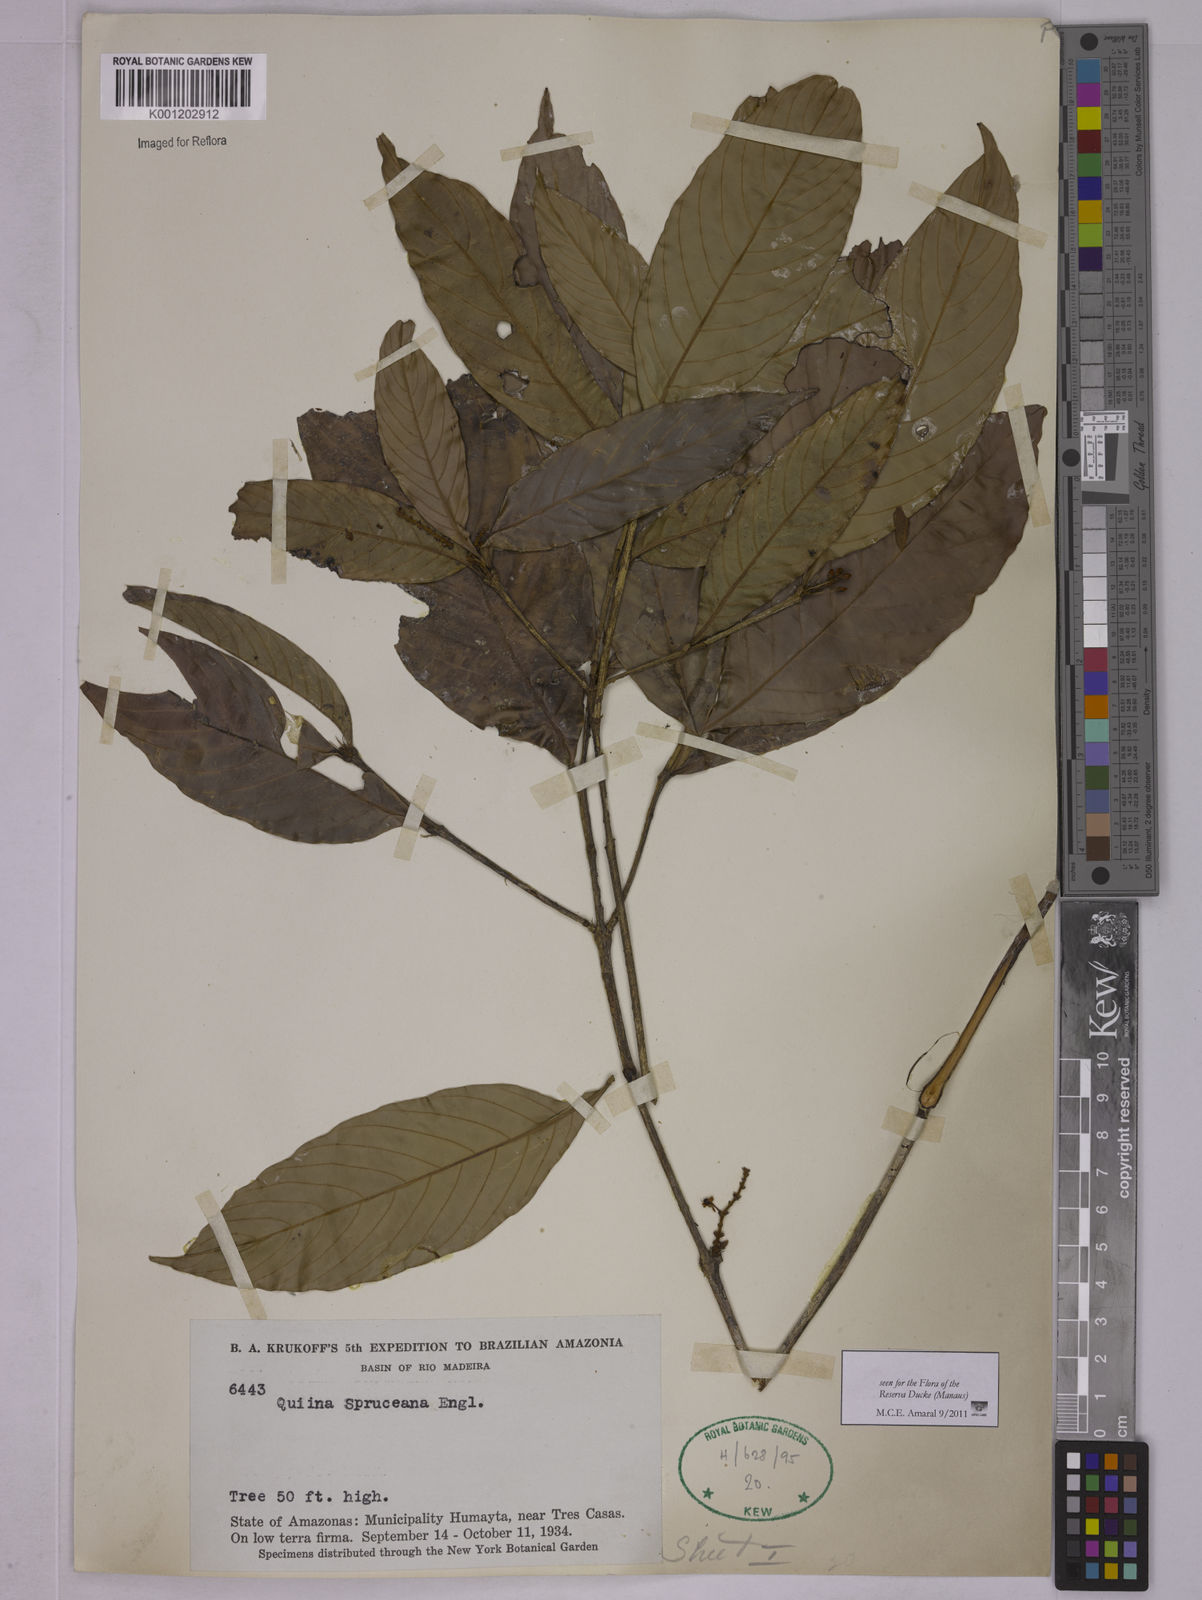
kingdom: Plantae
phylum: Tracheophyta
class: Magnoliopsida
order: Malpighiales
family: Quiinaceae
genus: Quiina
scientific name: Quiina macrophylla
